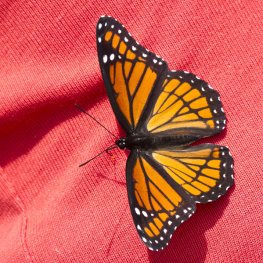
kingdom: Animalia
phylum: Arthropoda
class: Insecta
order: Lepidoptera
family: Nymphalidae
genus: Limenitis
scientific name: Limenitis archippus
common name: Viceroy
